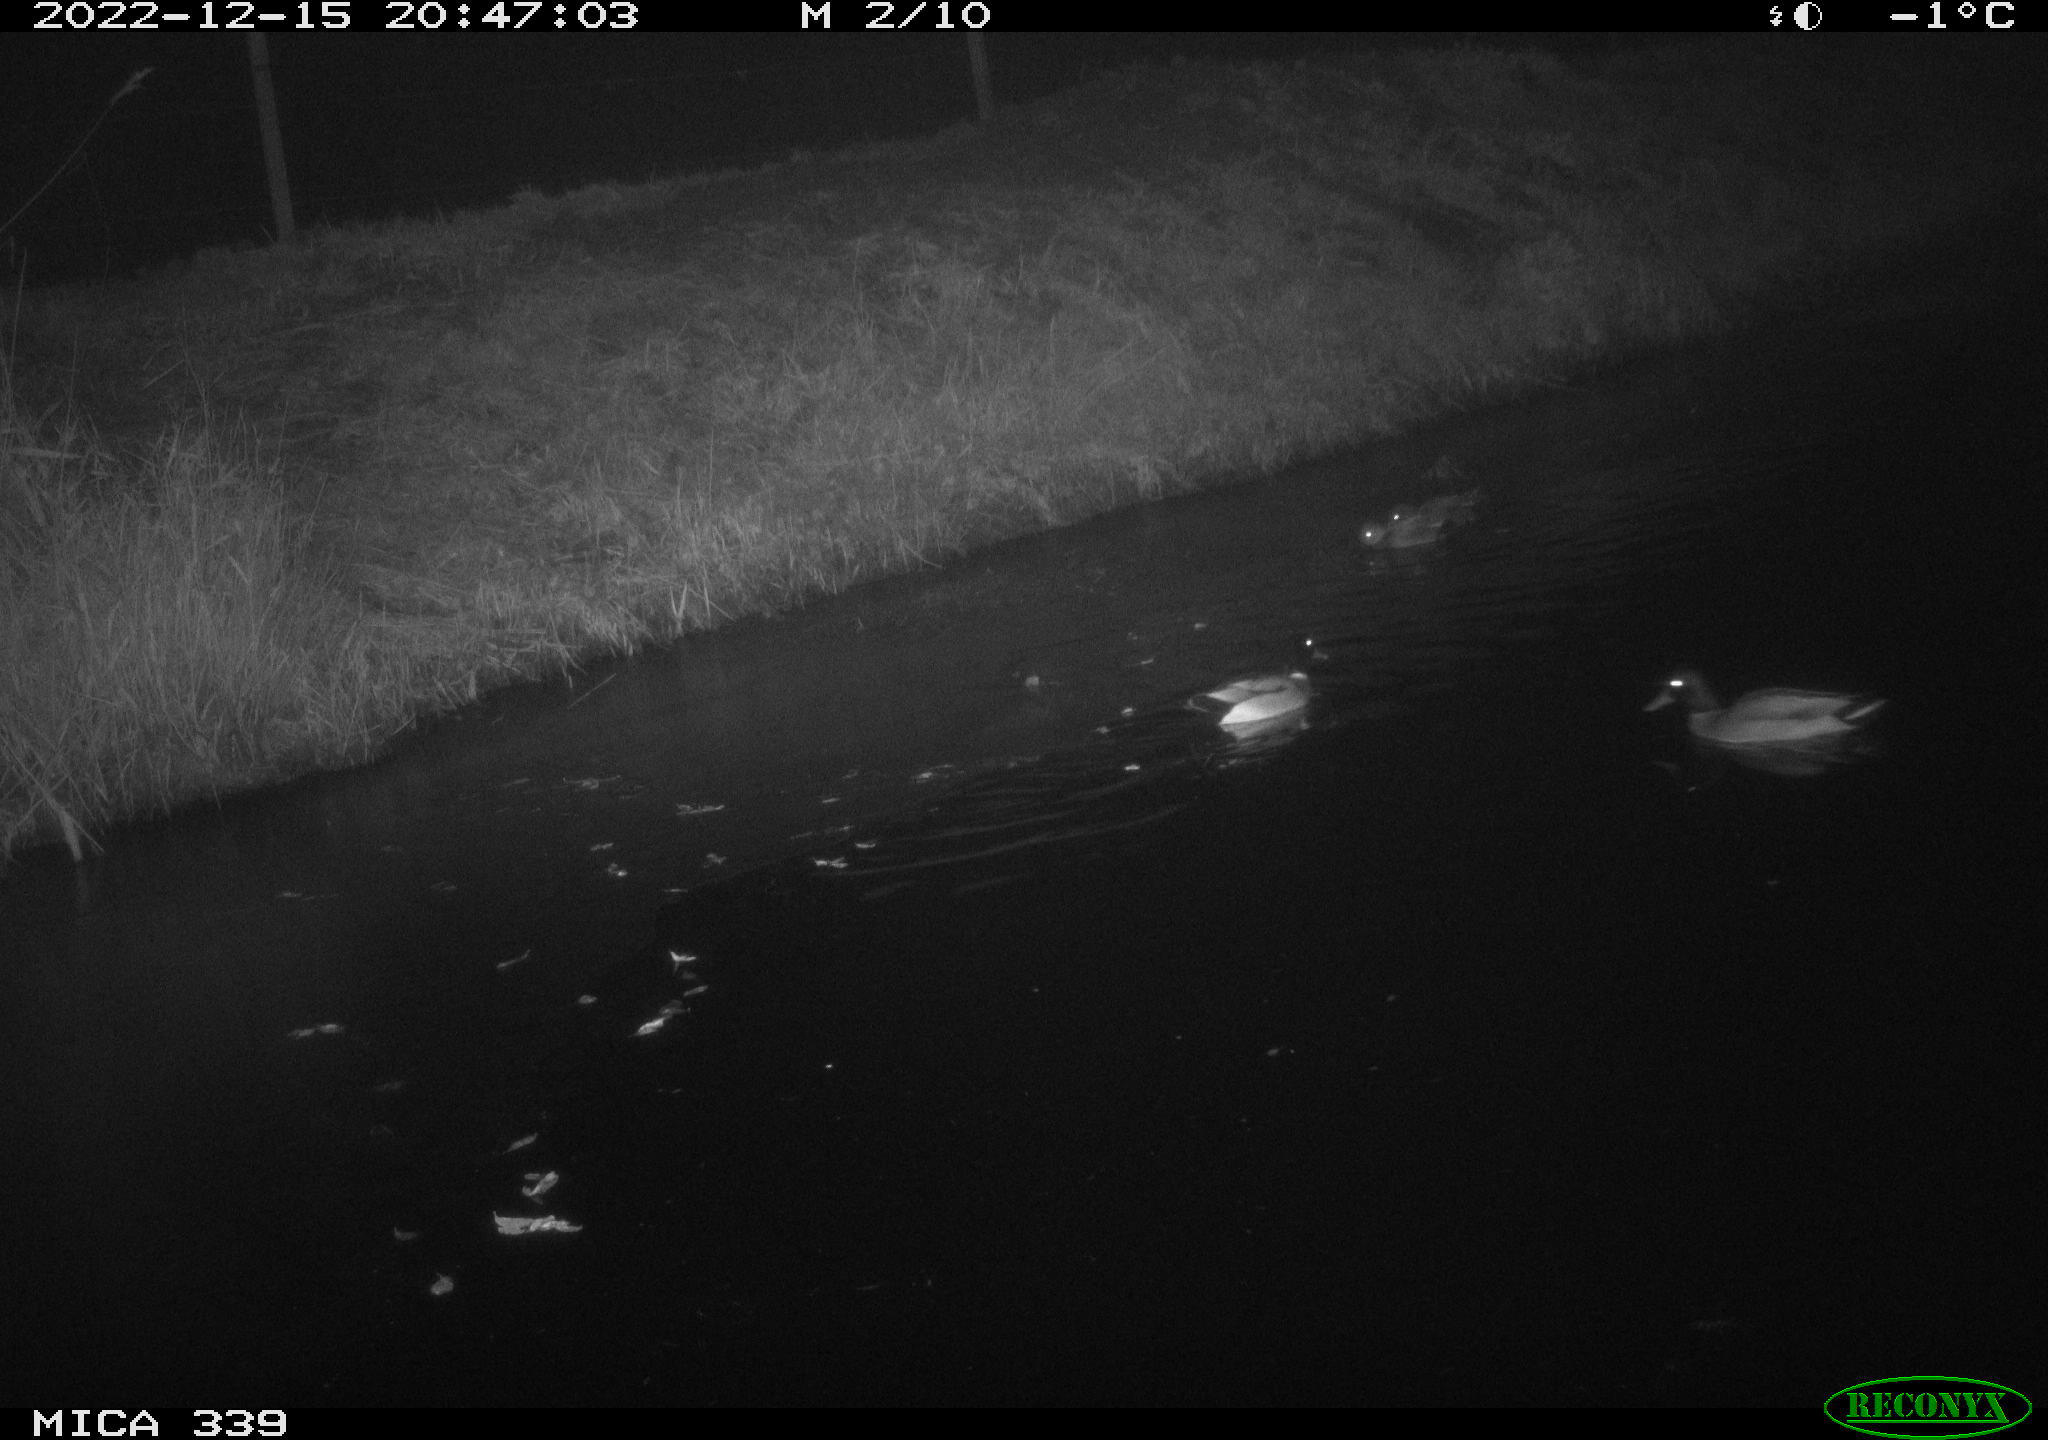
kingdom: Animalia
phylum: Chordata
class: Aves
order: Anseriformes
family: Anatidae
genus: Anas
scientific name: Anas
